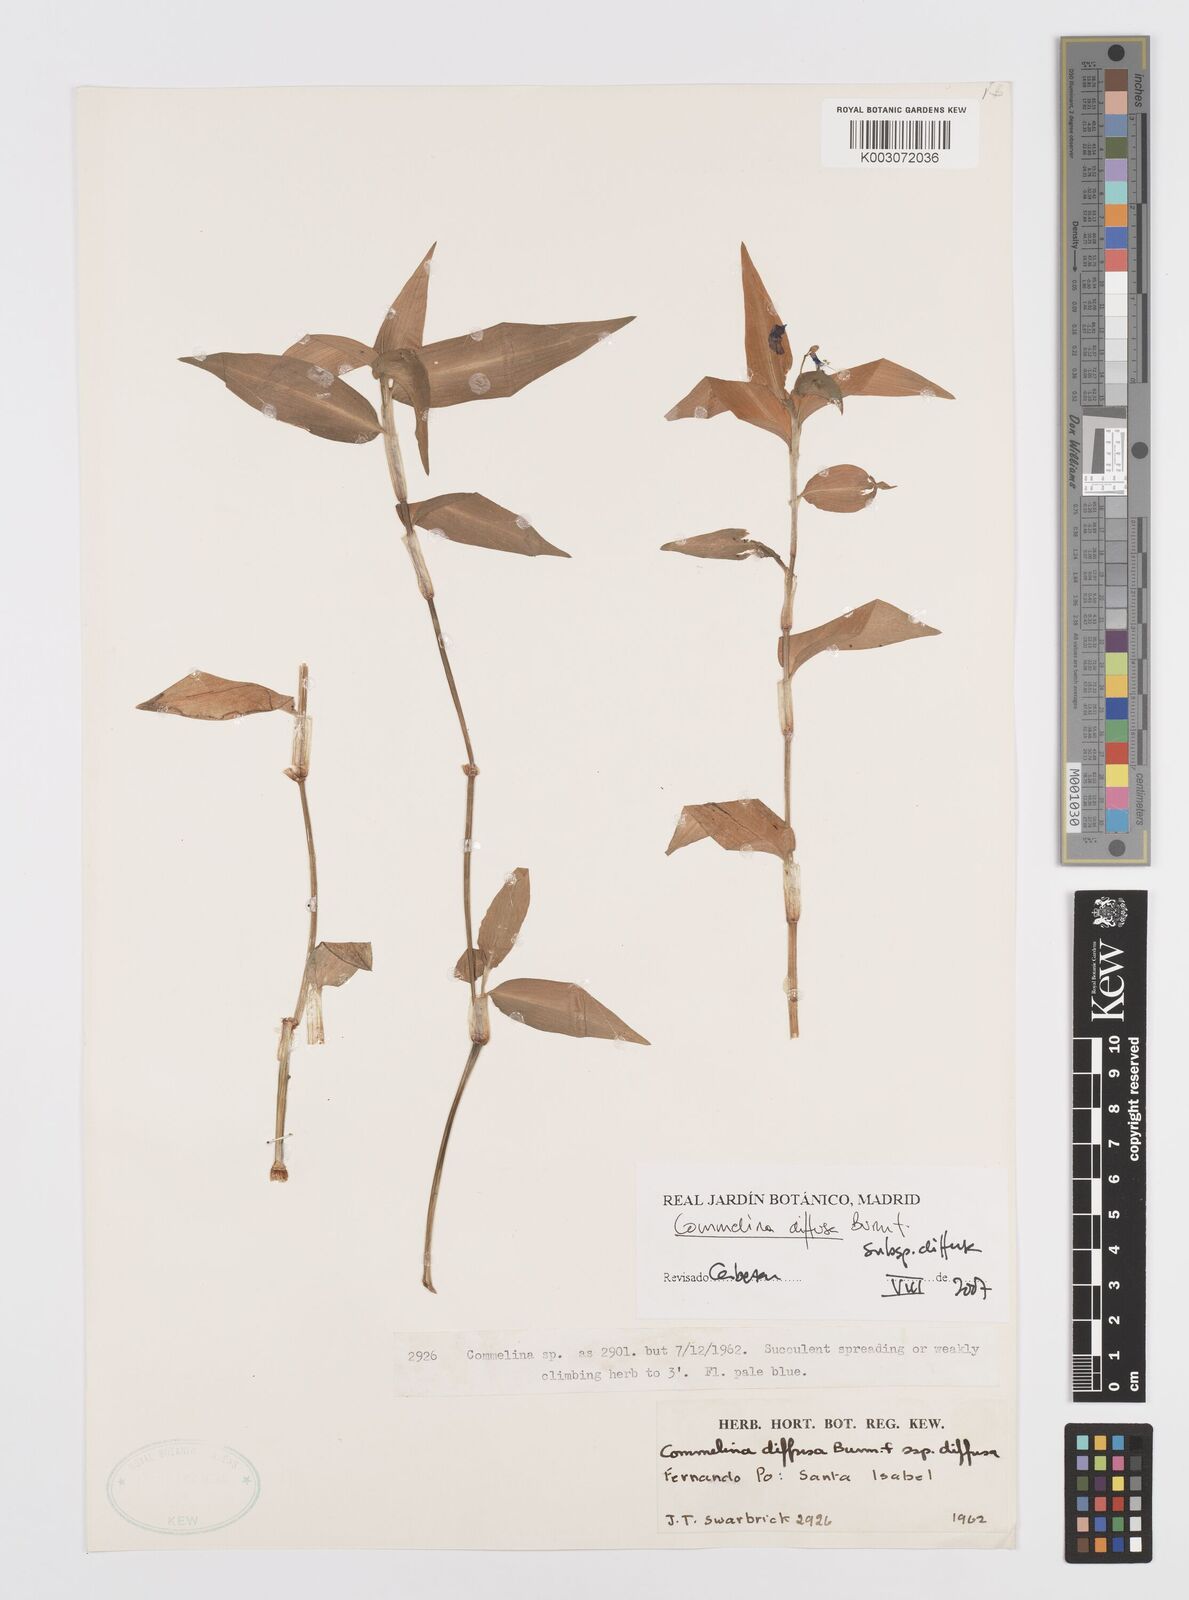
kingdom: Plantae
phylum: Tracheophyta
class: Liliopsida
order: Commelinales
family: Commelinaceae
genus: Commelina
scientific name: Commelina diffusa
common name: Climbing dayflower
